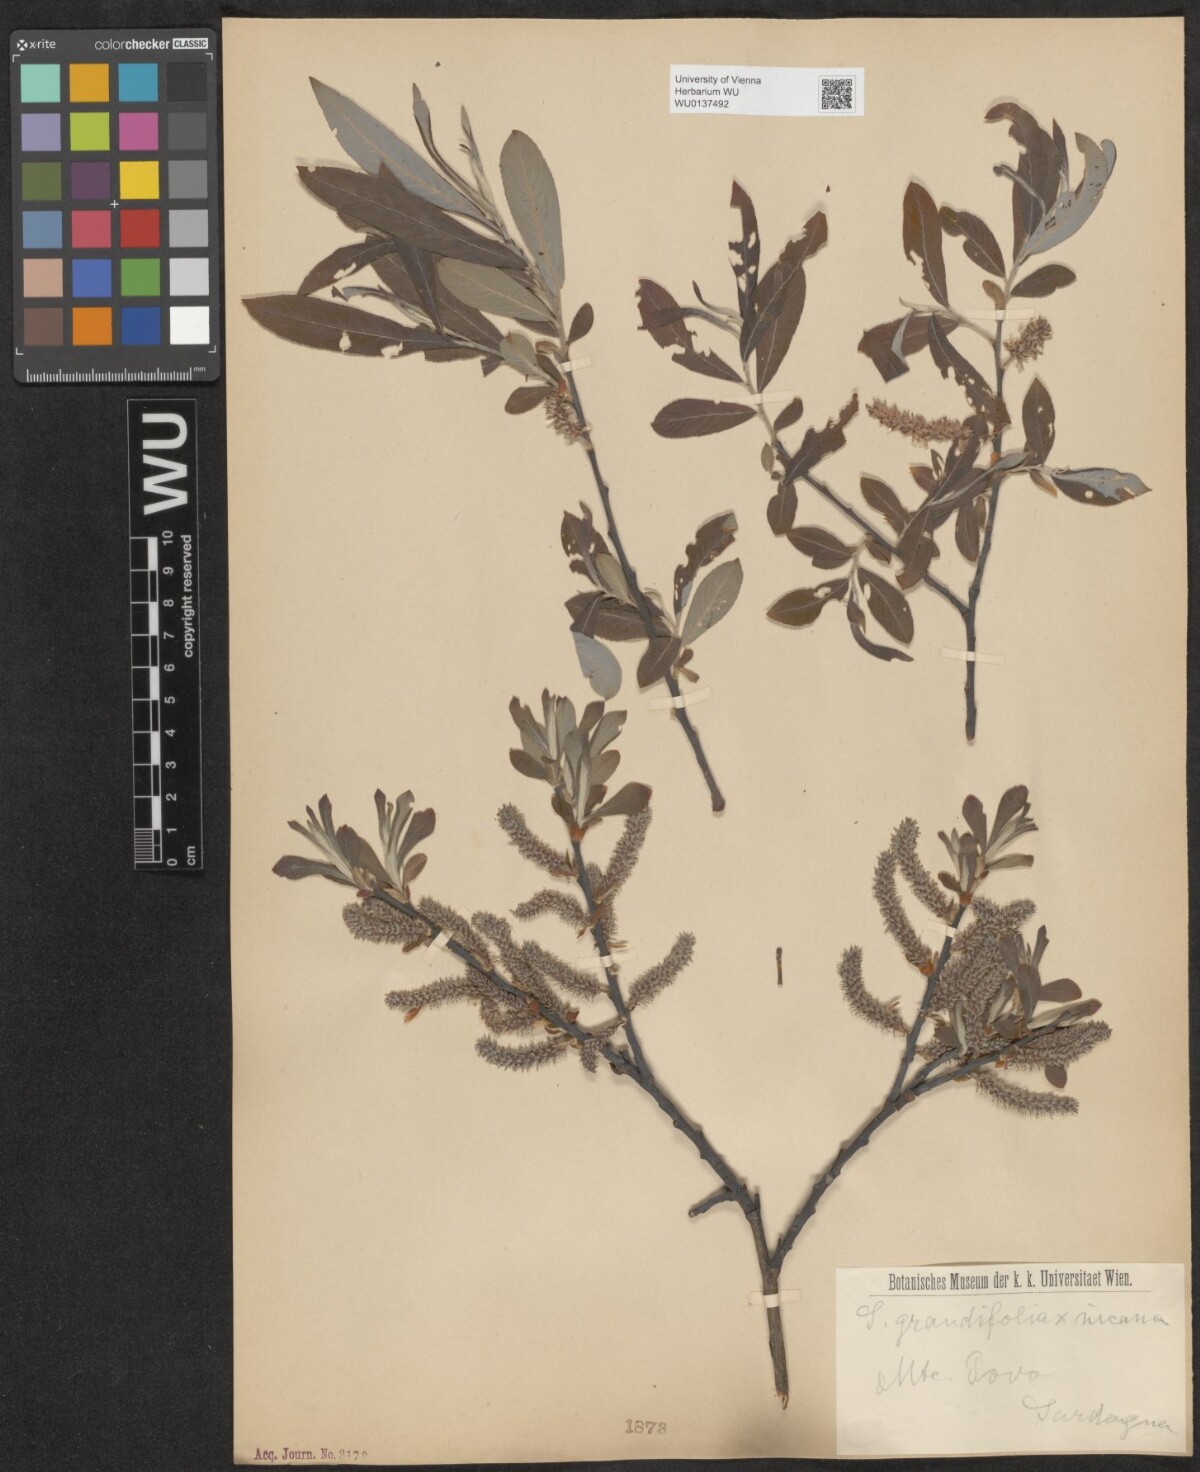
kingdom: Plantae
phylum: Tracheophyta
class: Magnoliopsida
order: Malpighiales
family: Salicaceae
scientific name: Salicaceae
